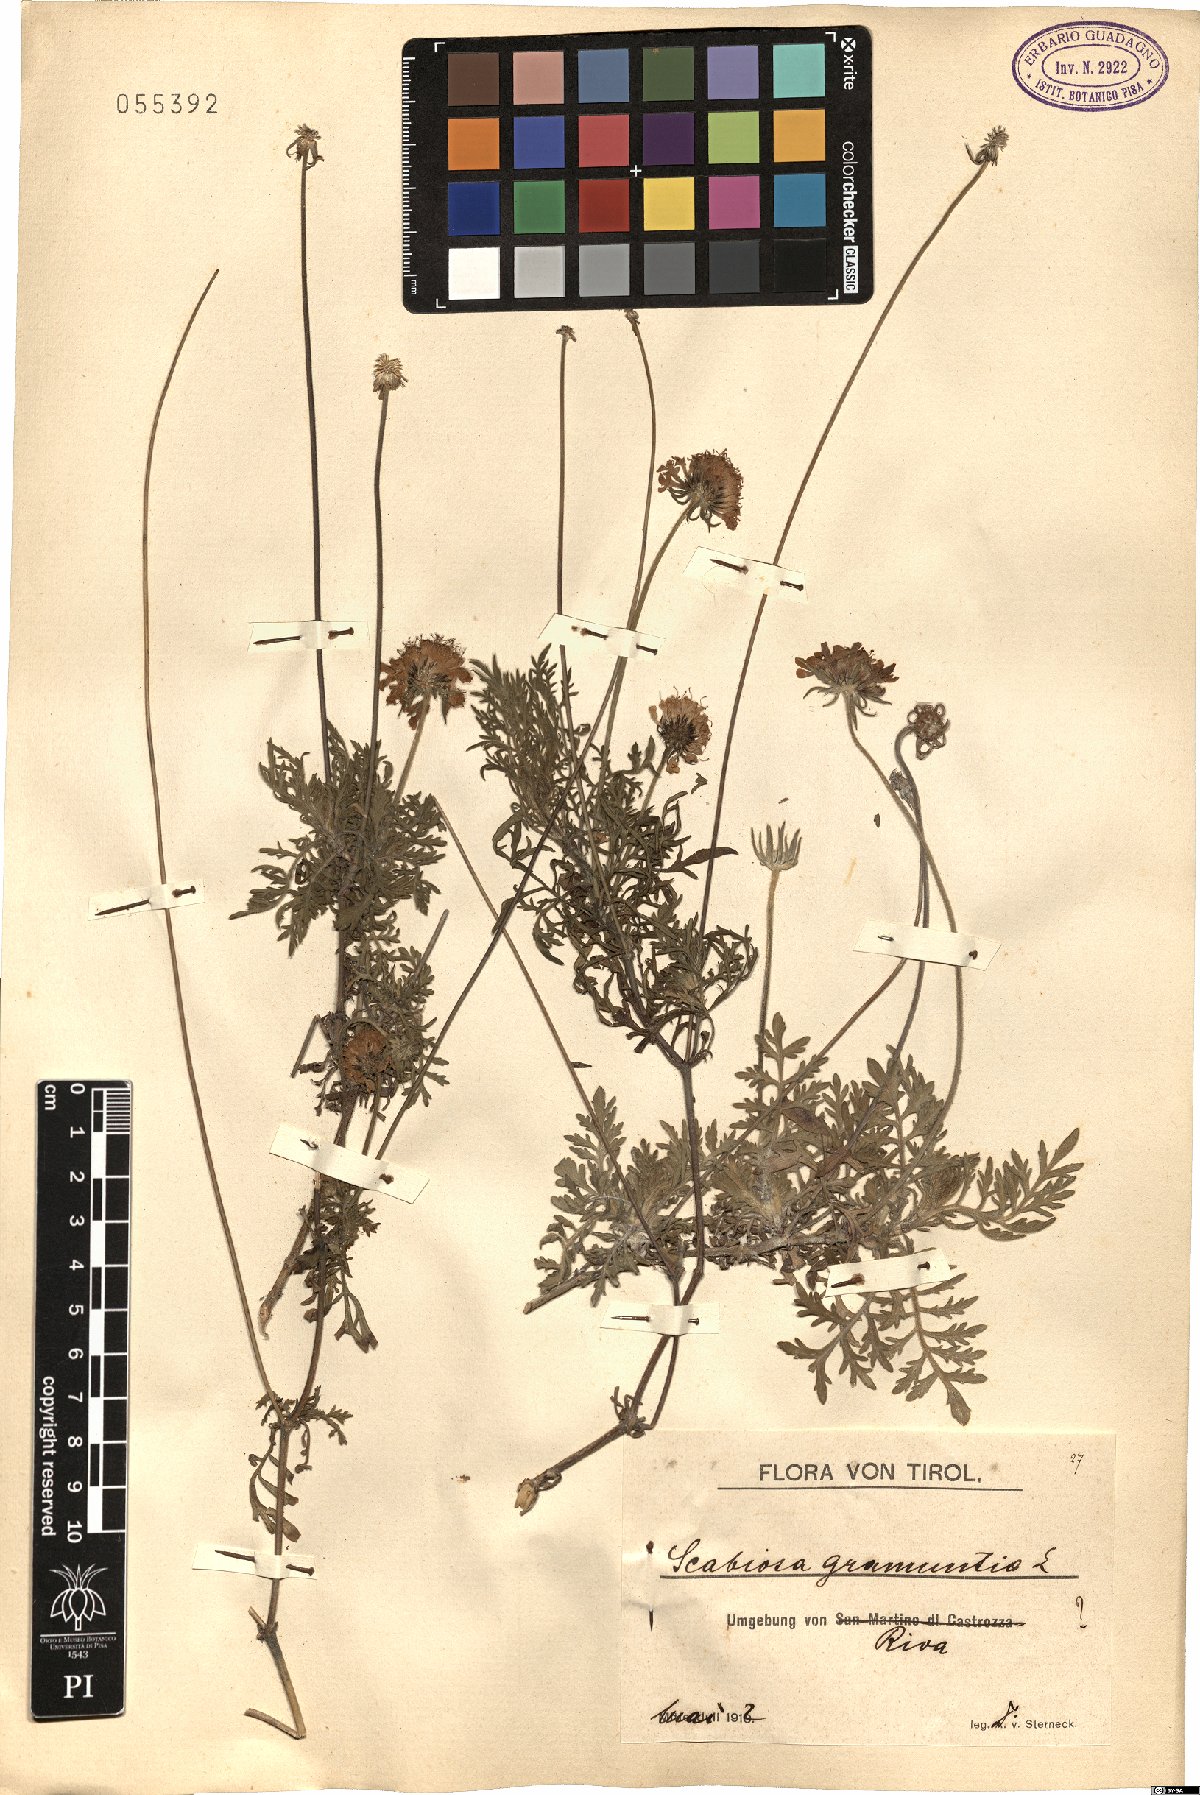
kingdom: Plantae
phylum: Tracheophyta
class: Magnoliopsida
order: Dipsacales
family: Caprifoliaceae
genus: Scabiosa
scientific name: Scabiosa triandra
